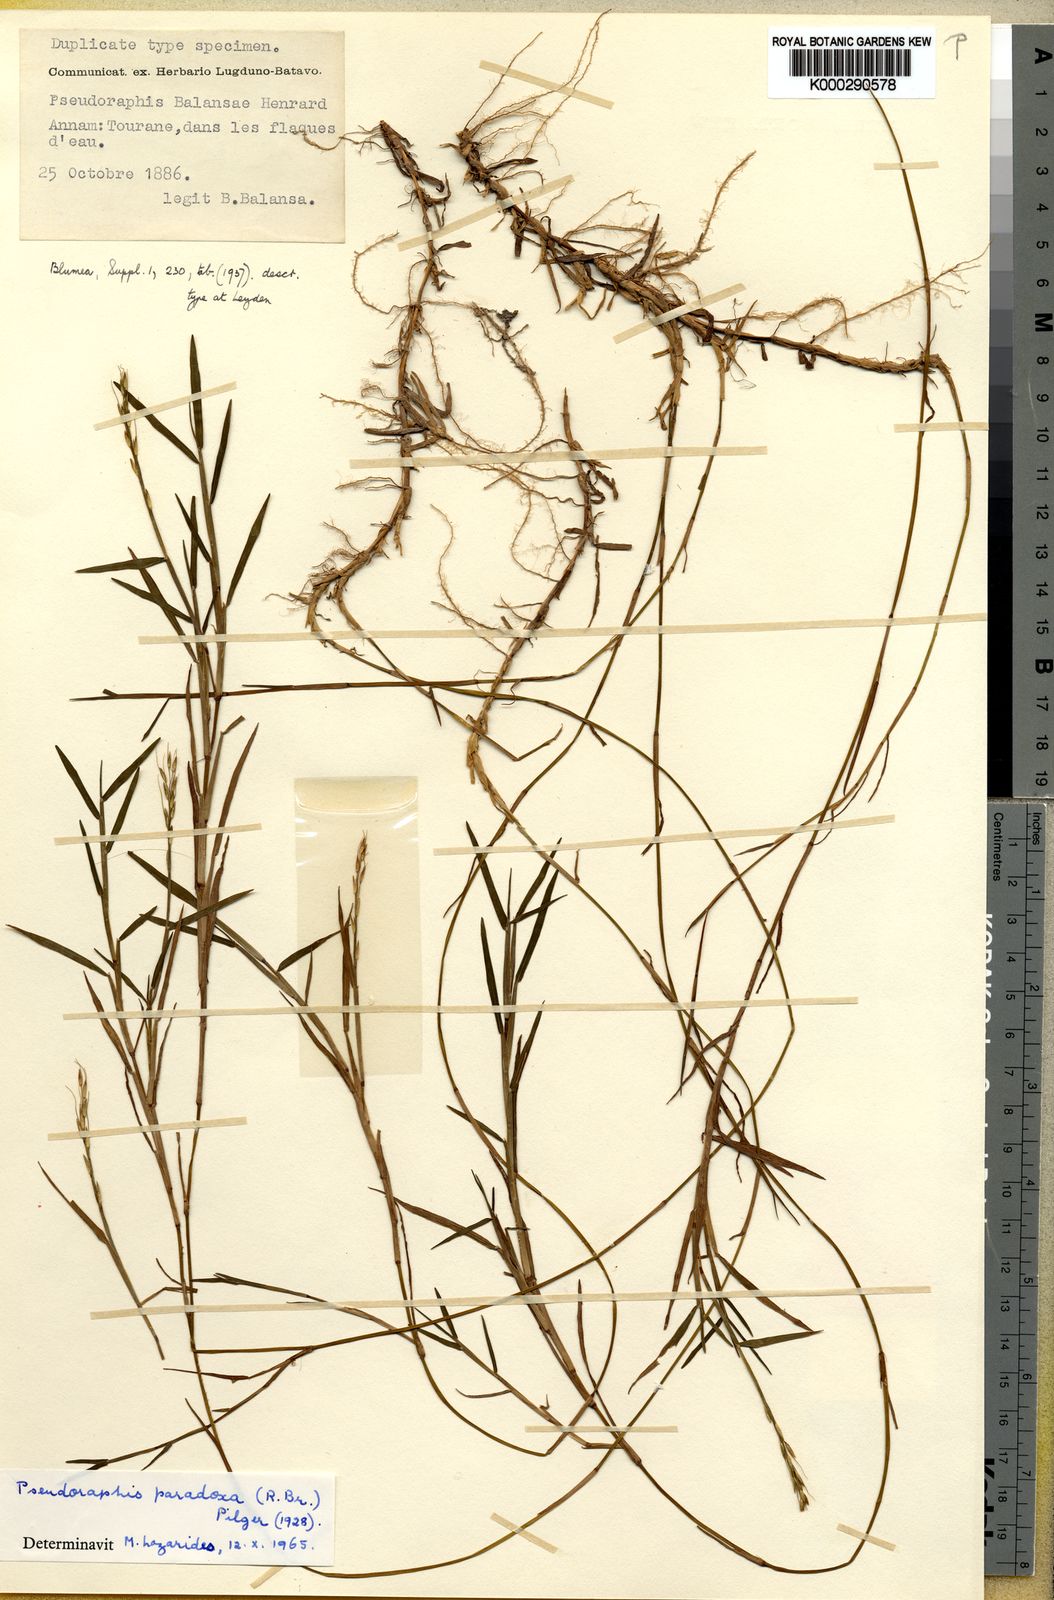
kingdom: Plantae
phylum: Tracheophyta
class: Liliopsida
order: Poales
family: Poaceae
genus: Pseudoraphis
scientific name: Pseudoraphis balansae
